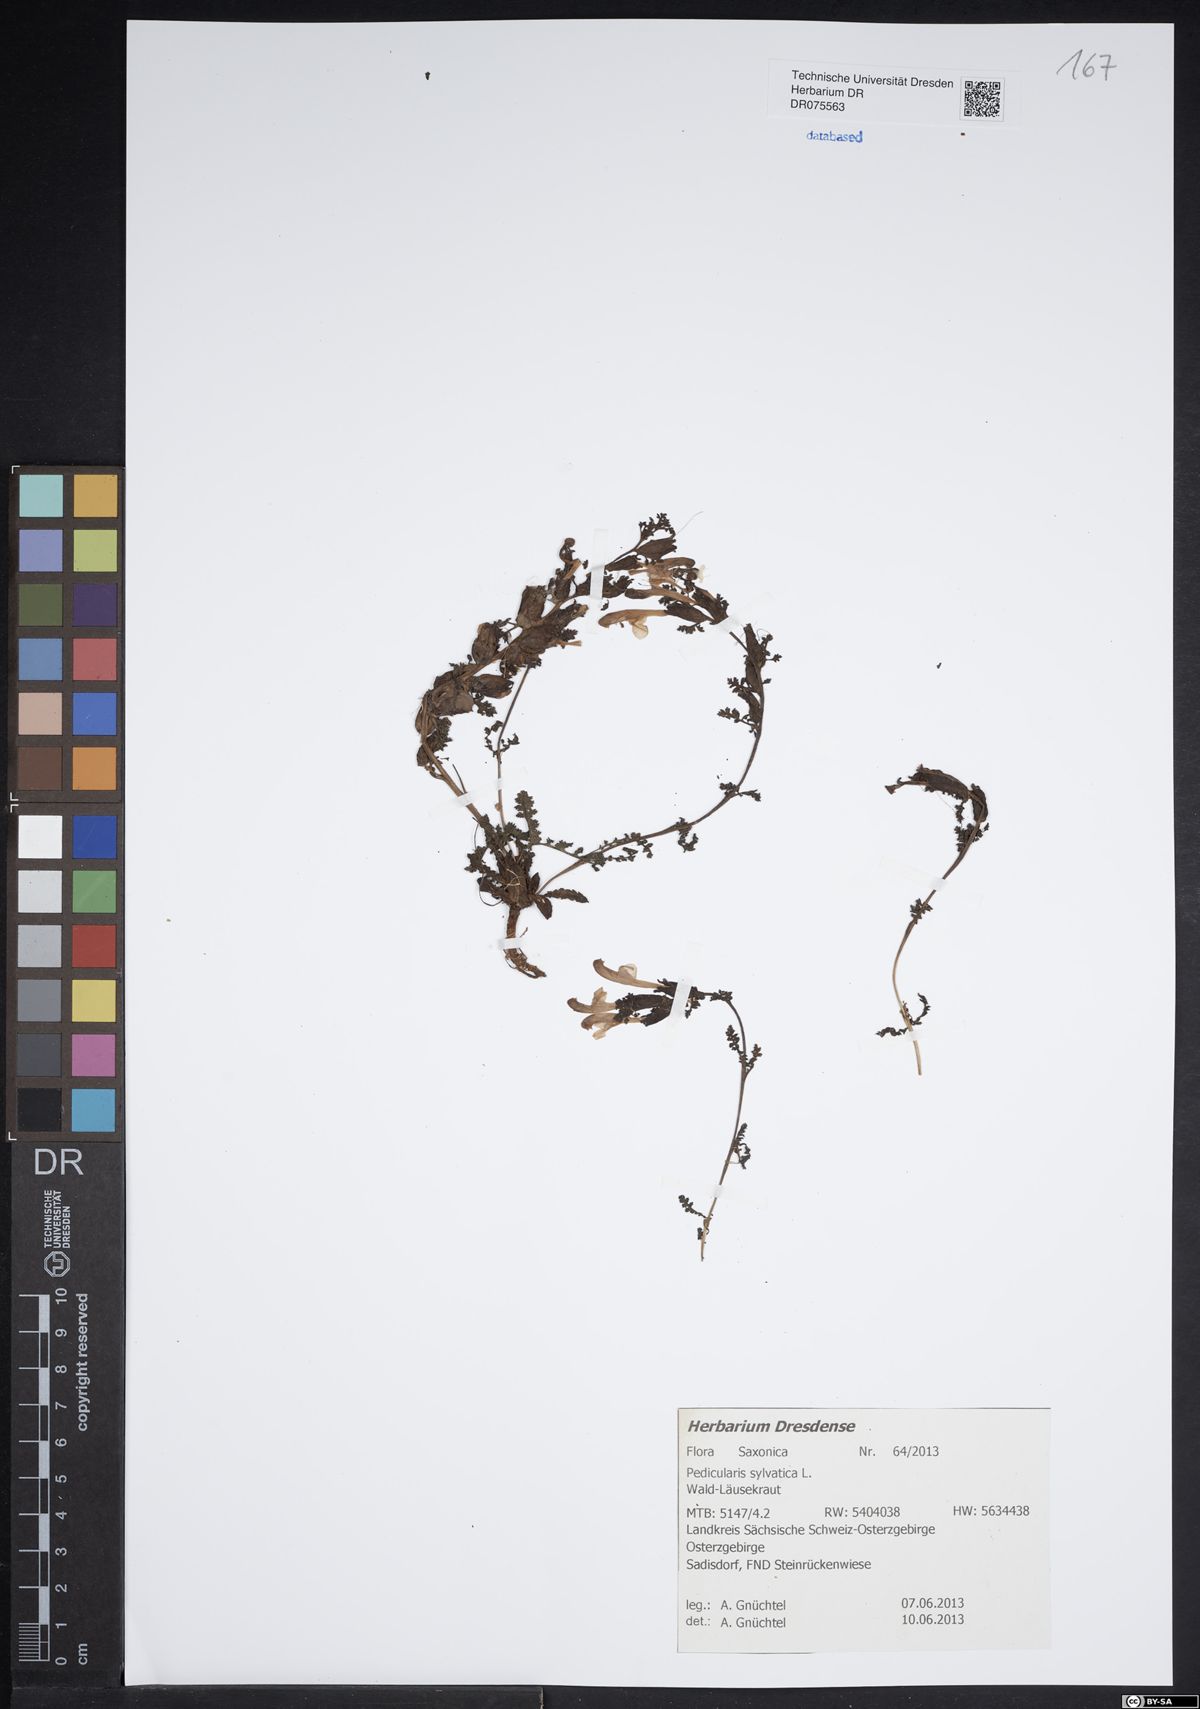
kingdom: Plantae
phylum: Tracheophyta
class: Magnoliopsida
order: Lamiales
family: Orobanchaceae
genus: Pedicularis
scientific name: Pedicularis sylvatica
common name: Lousewort
